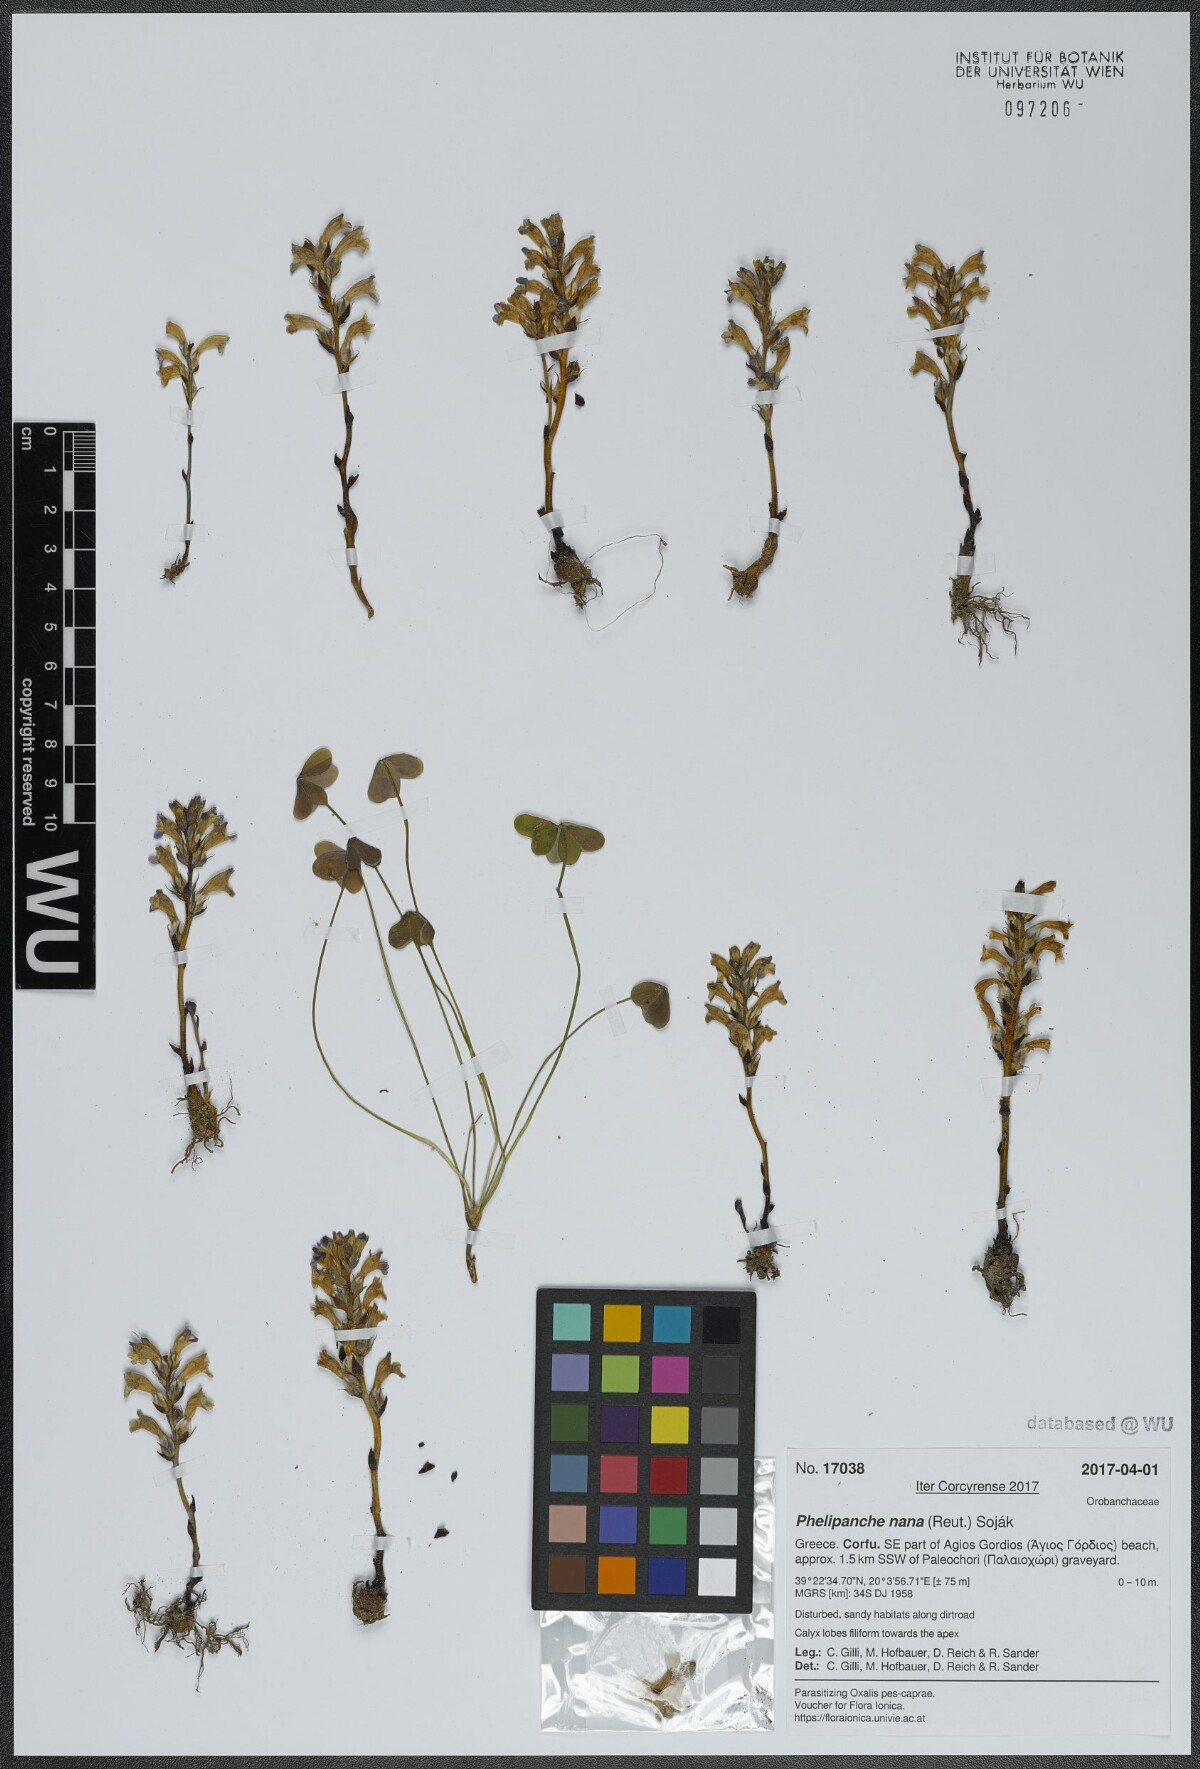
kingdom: Plantae
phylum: Tracheophyta
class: Magnoliopsida
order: Lamiales
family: Orobanchaceae
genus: Phelipanche
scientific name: Phelipanche mutelii
